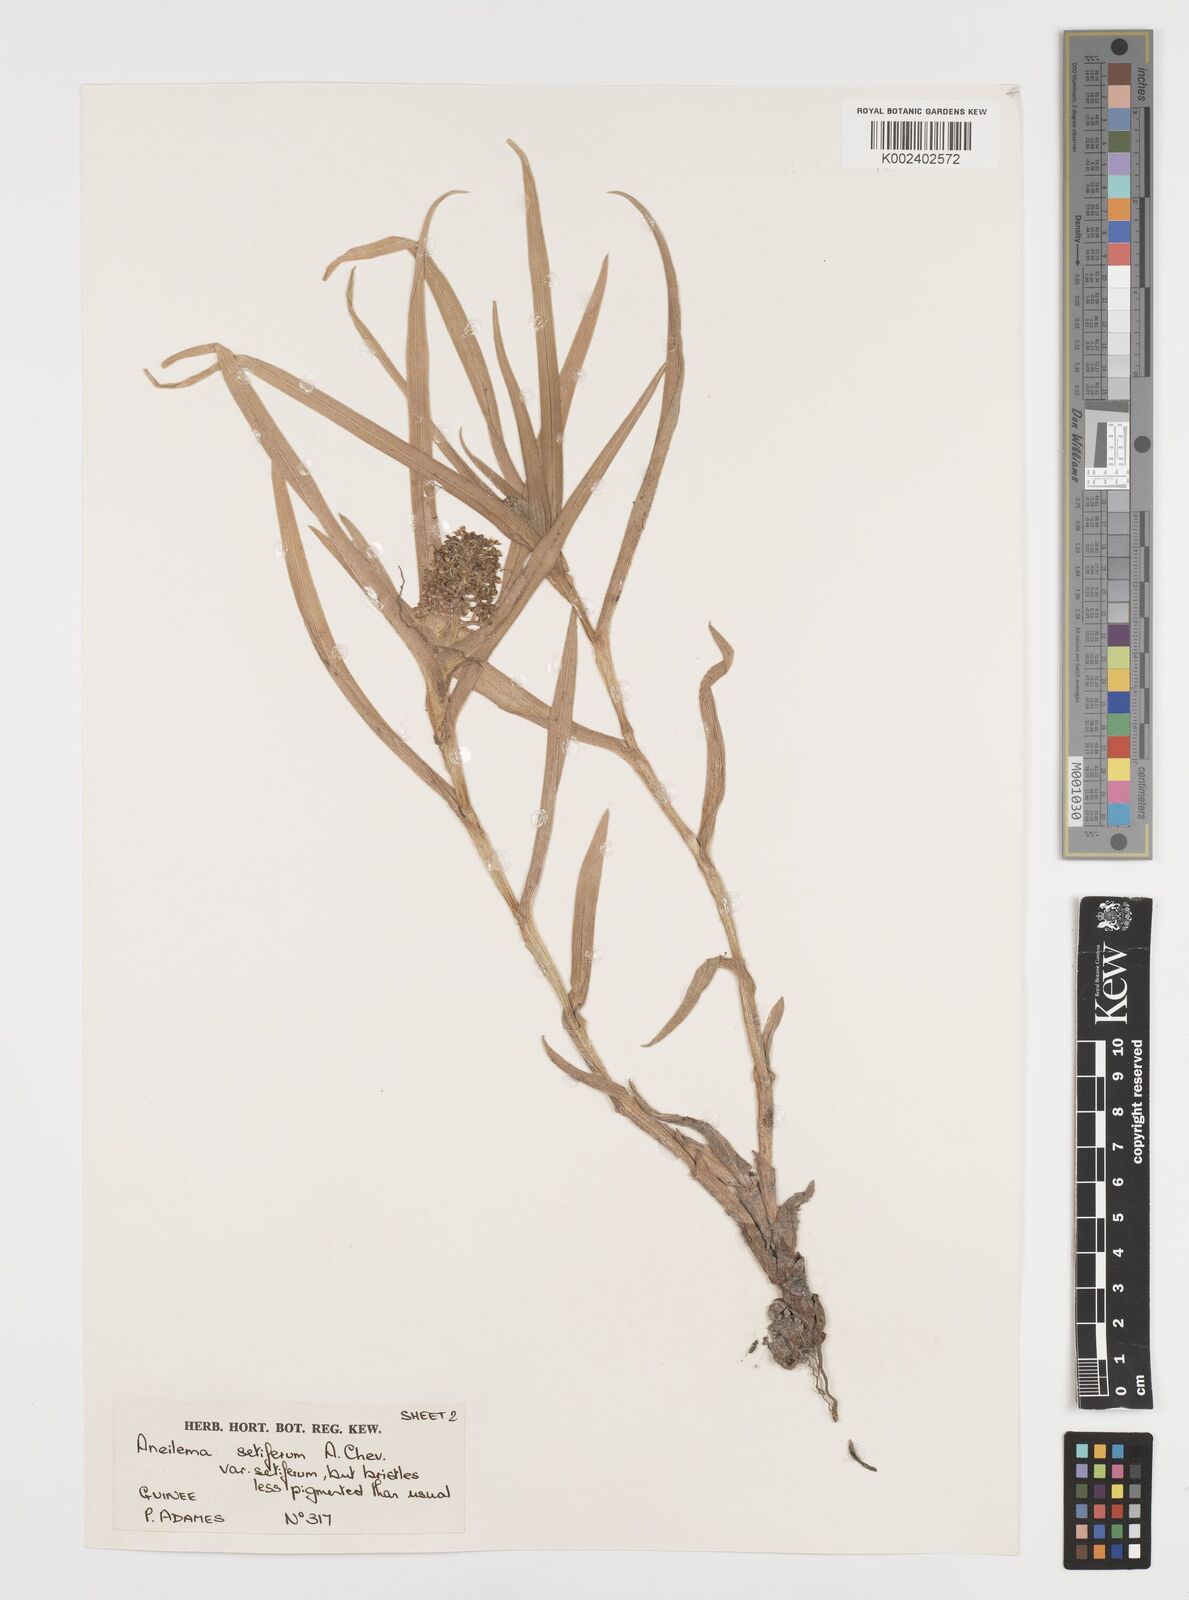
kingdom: Plantae
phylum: Tracheophyta
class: Liliopsida
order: Commelinales
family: Commelinaceae
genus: Aneilema
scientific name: Aneilema setiferum
